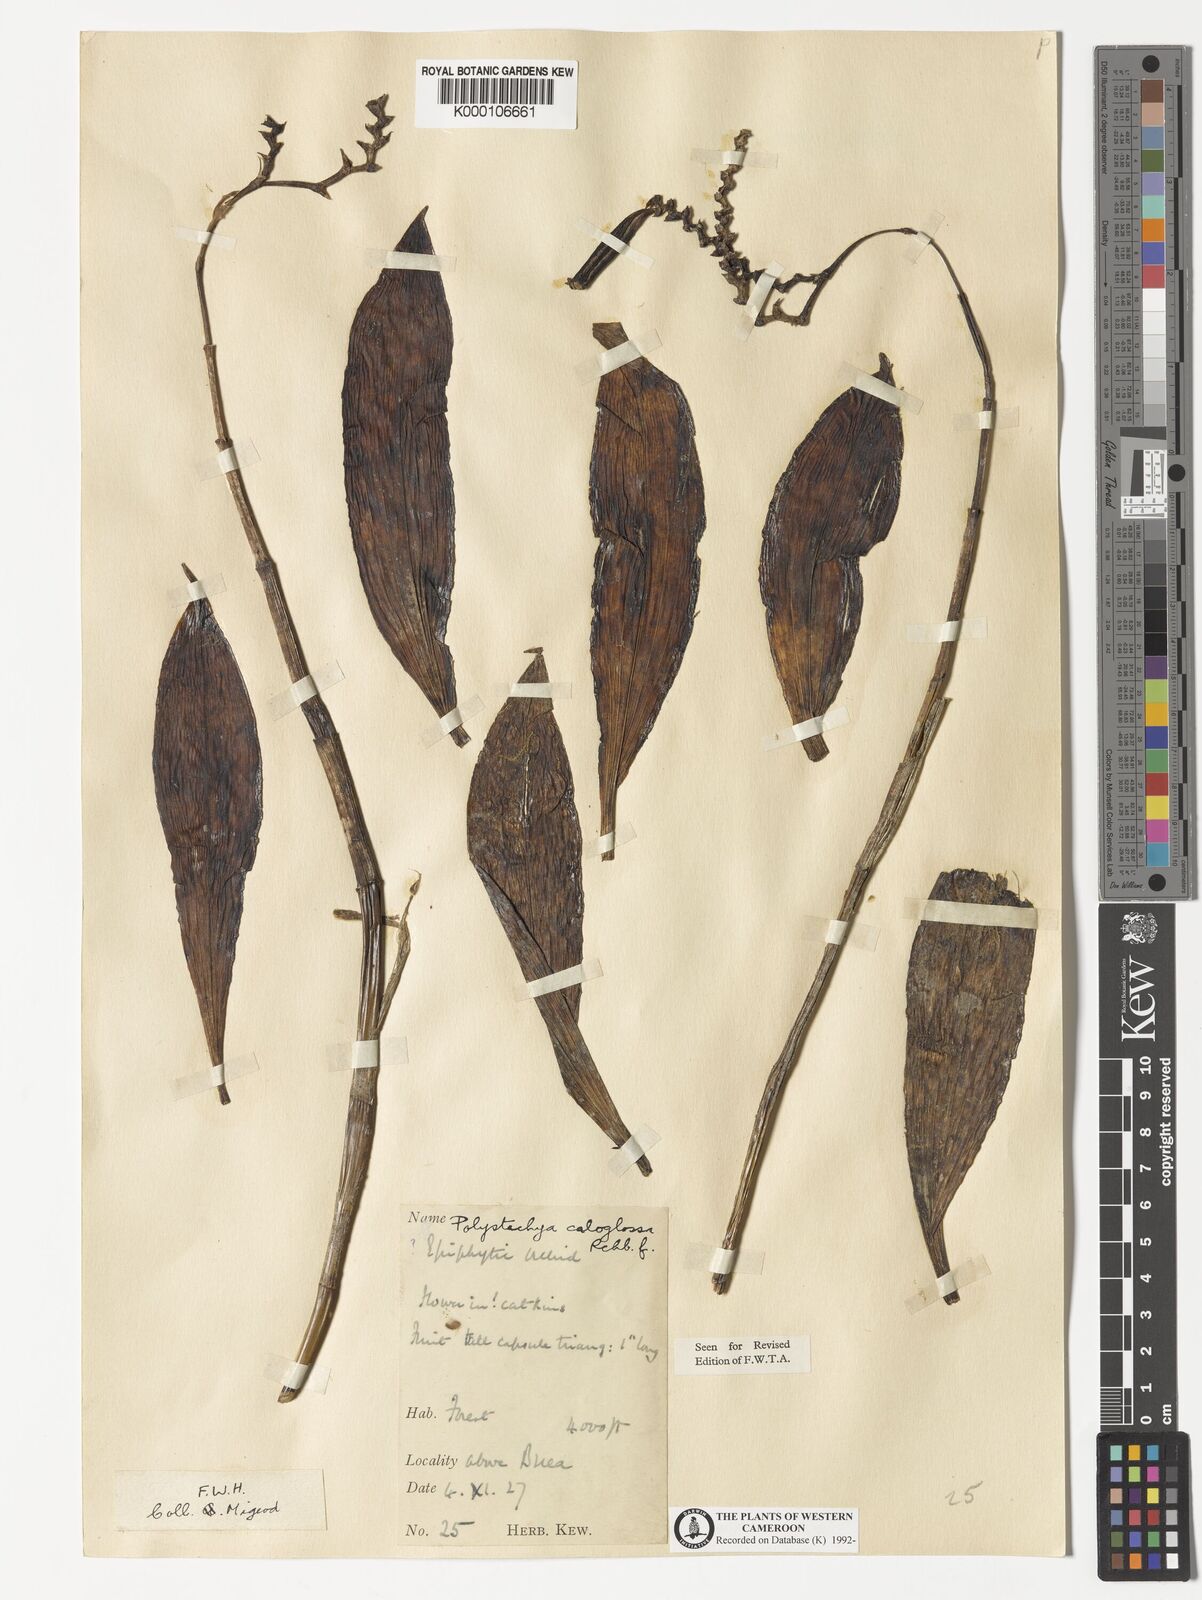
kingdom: Plantae
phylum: Tracheophyta
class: Liliopsida
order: Asparagales
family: Orchidaceae
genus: Polystachya
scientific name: Polystachya caloglossa
